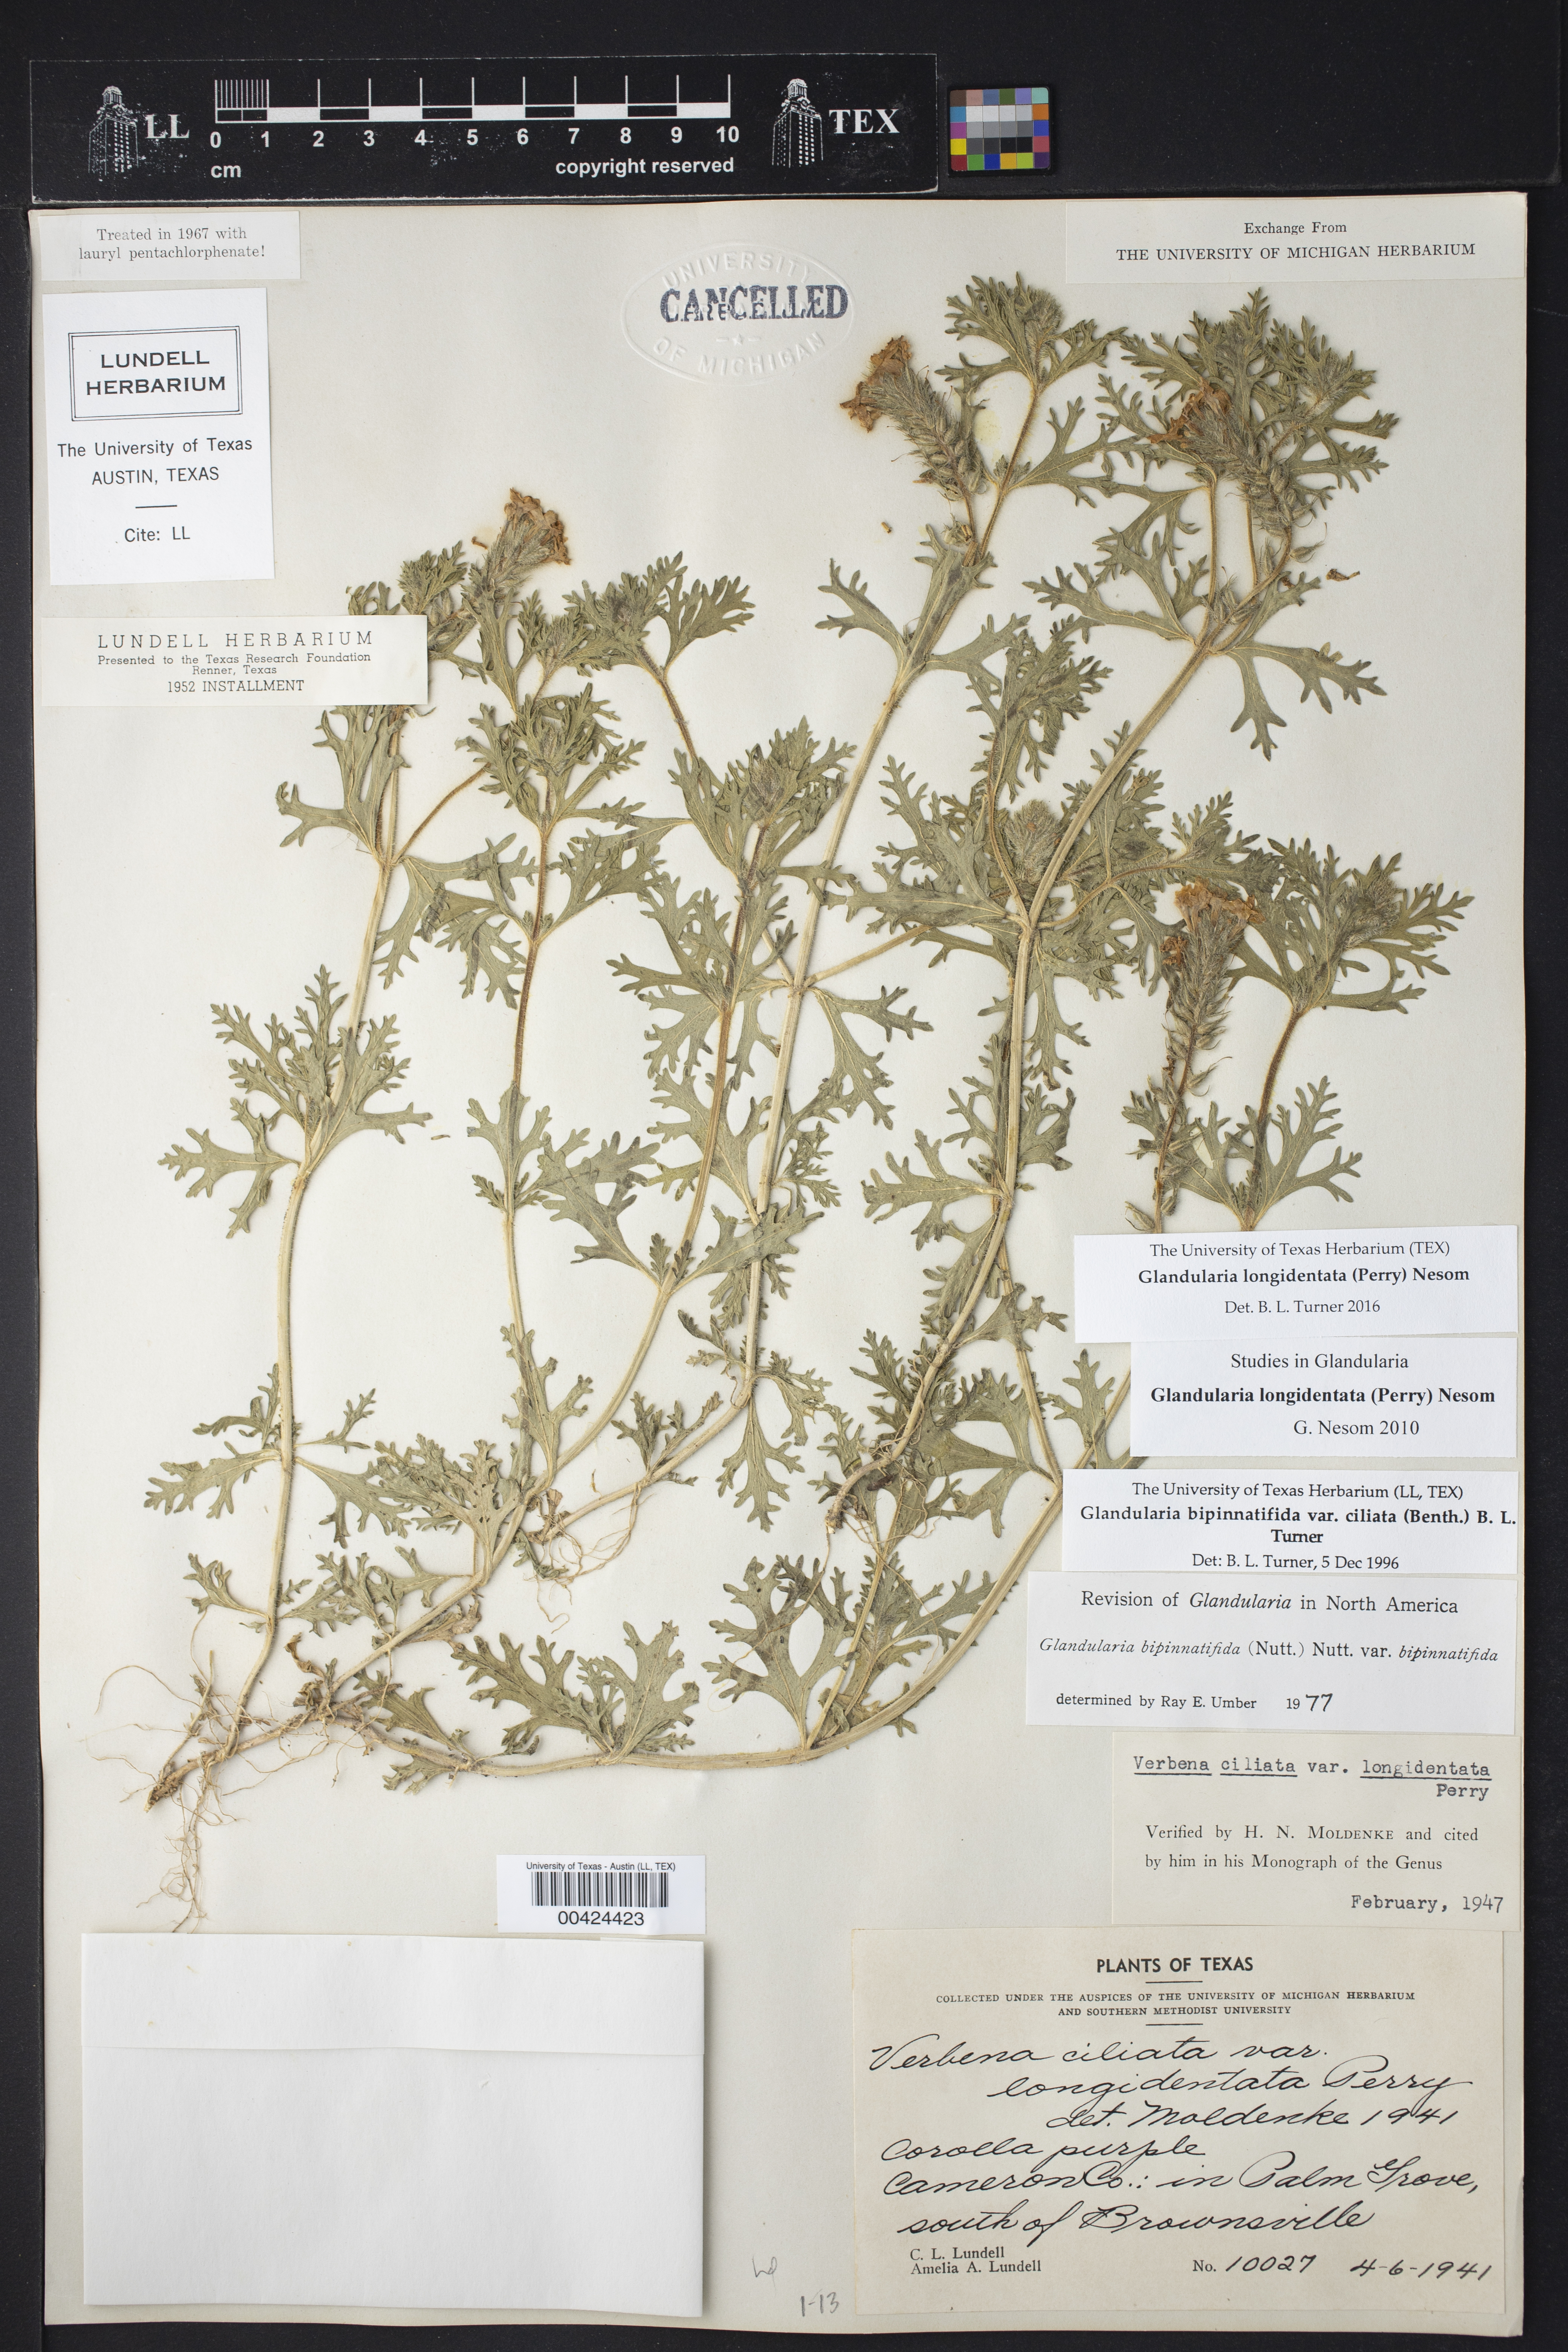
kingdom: Plantae
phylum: Tracheophyta
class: Magnoliopsida
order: Lamiales
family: Verbenaceae
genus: Verbena
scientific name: Verbena polyantha
